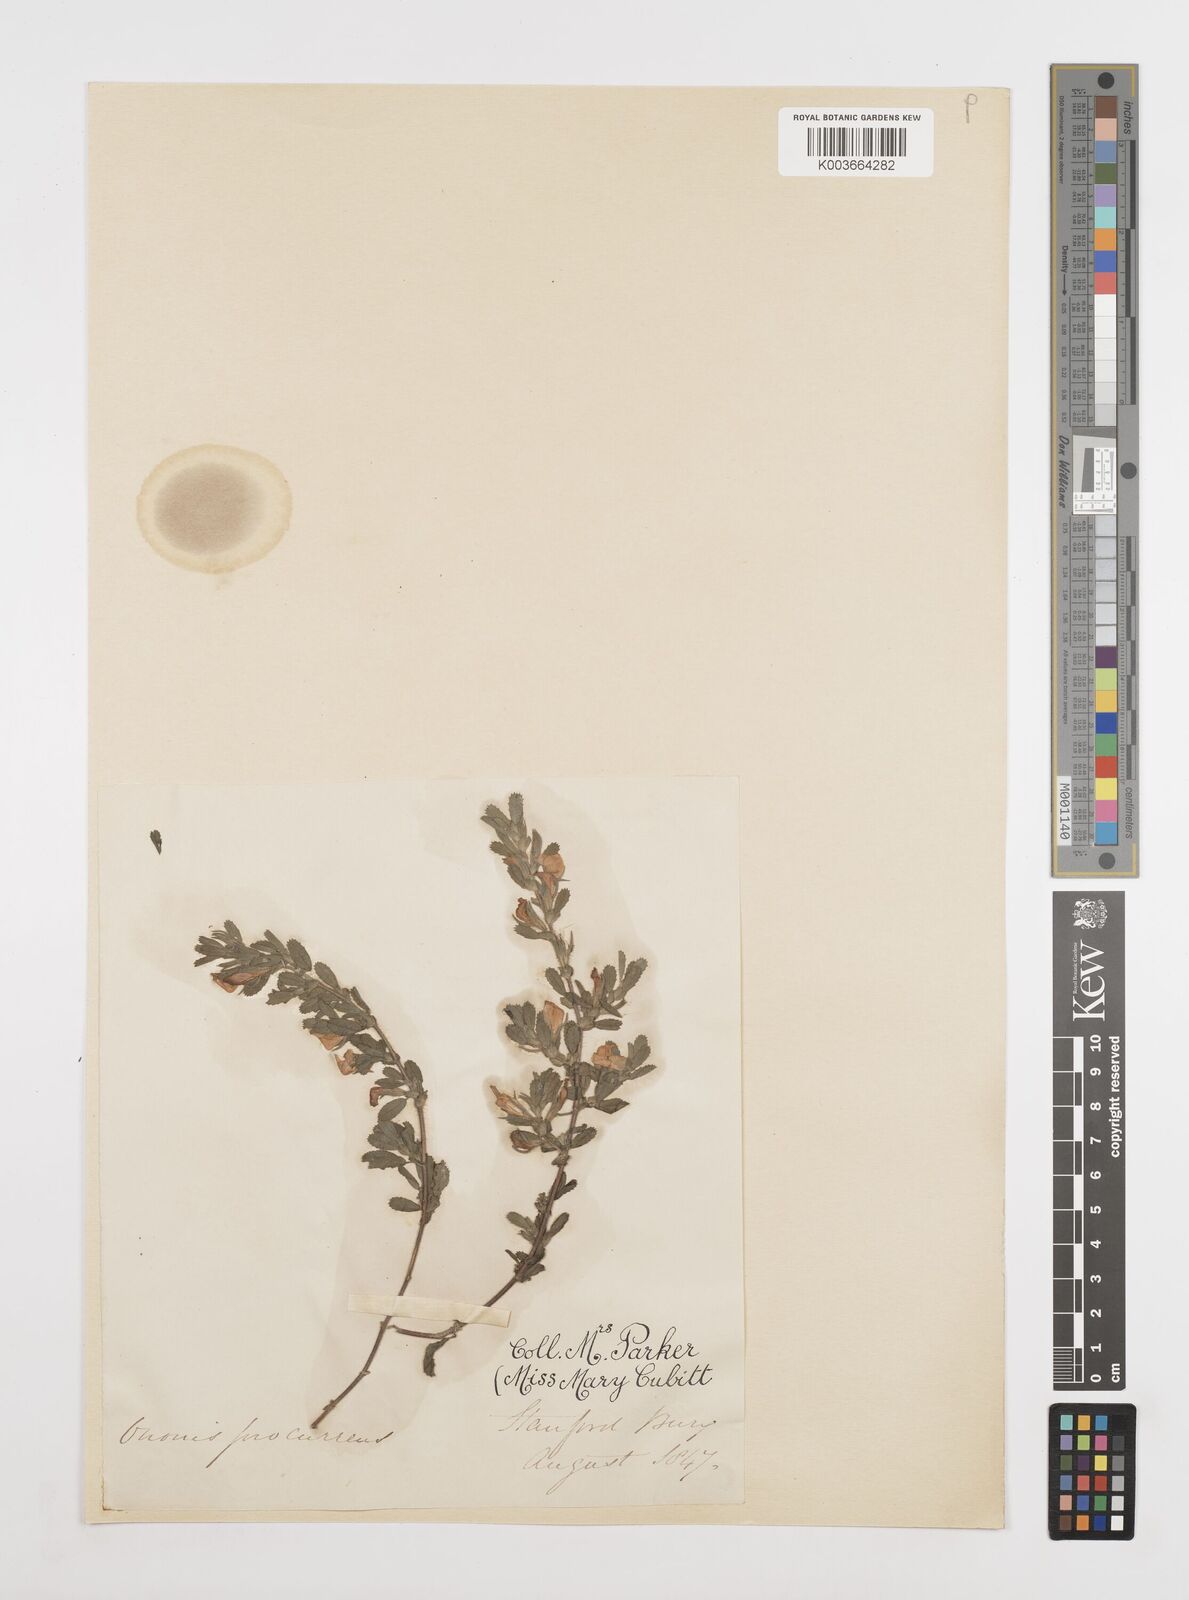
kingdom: Plantae
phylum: Tracheophyta
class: Magnoliopsida
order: Fabales
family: Fabaceae
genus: Ononis
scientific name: Ononis spinosa
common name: Spiny restharrow
